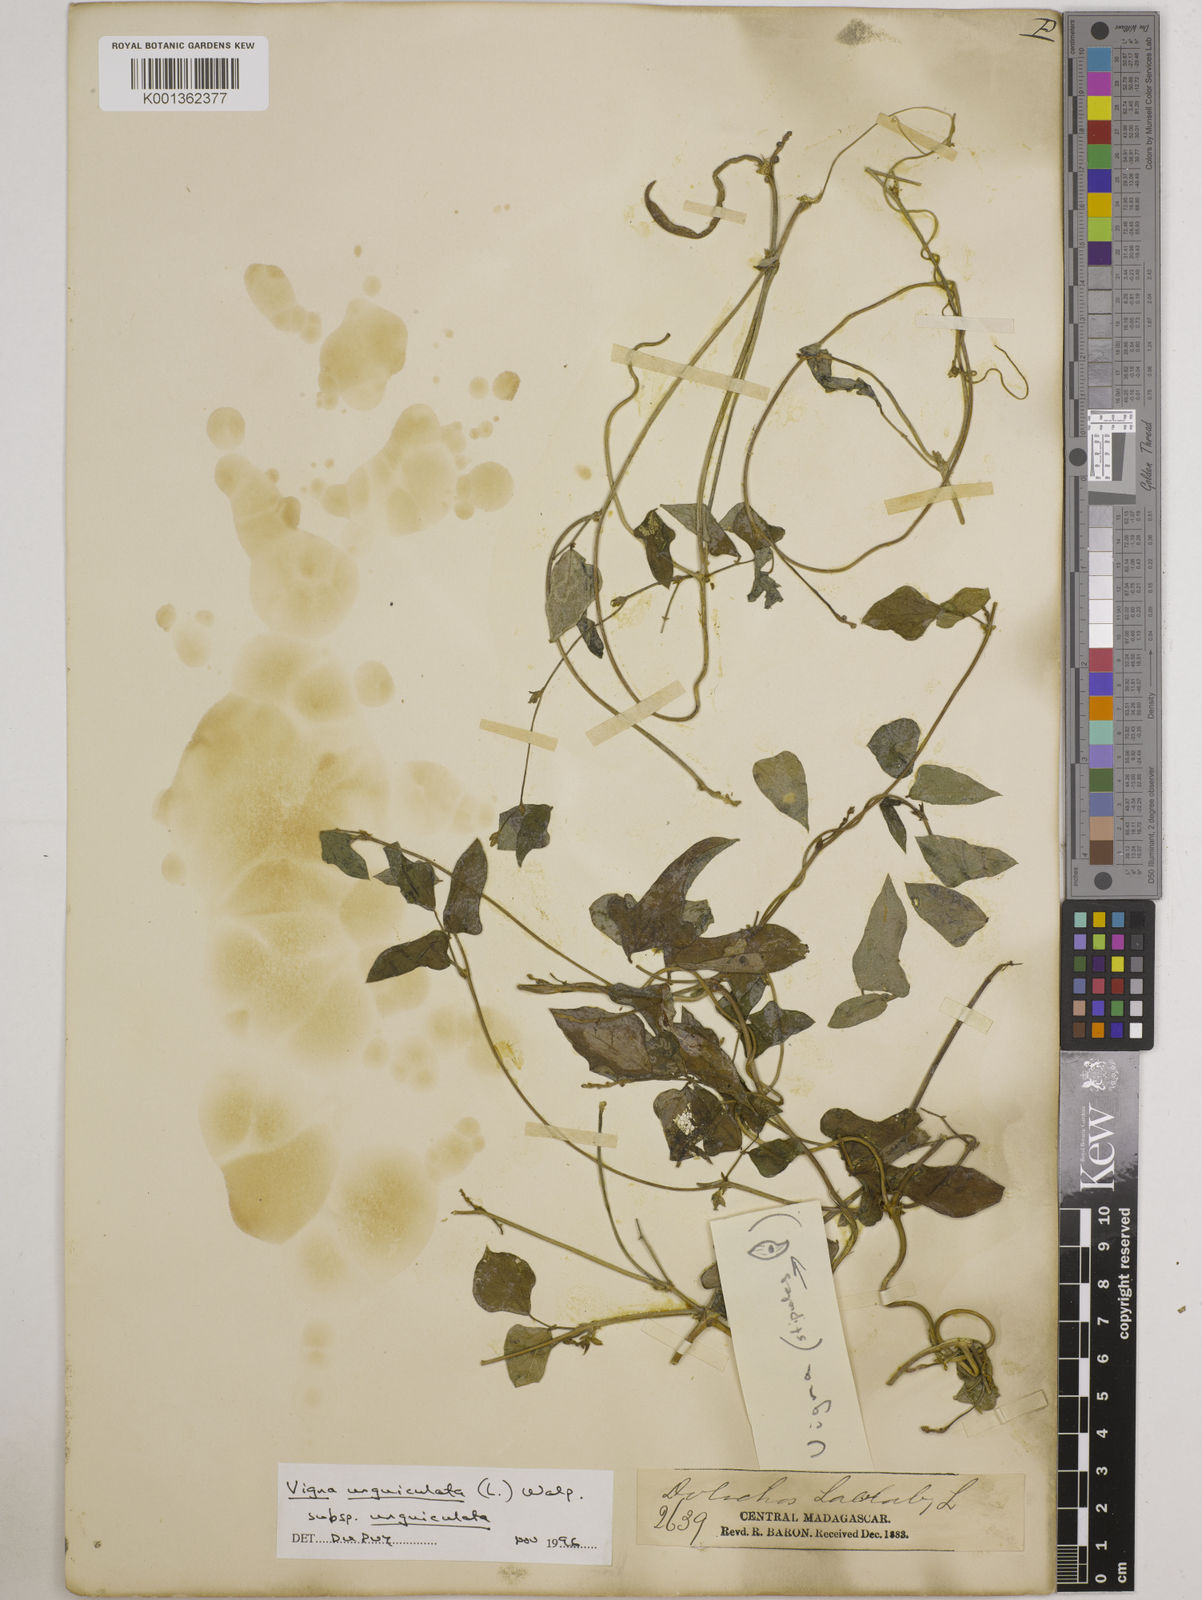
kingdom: Plantae
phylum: Tracheophyta
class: Magnoliopsida
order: Fabales
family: Fabaceae
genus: Vigna
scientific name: Vigna
